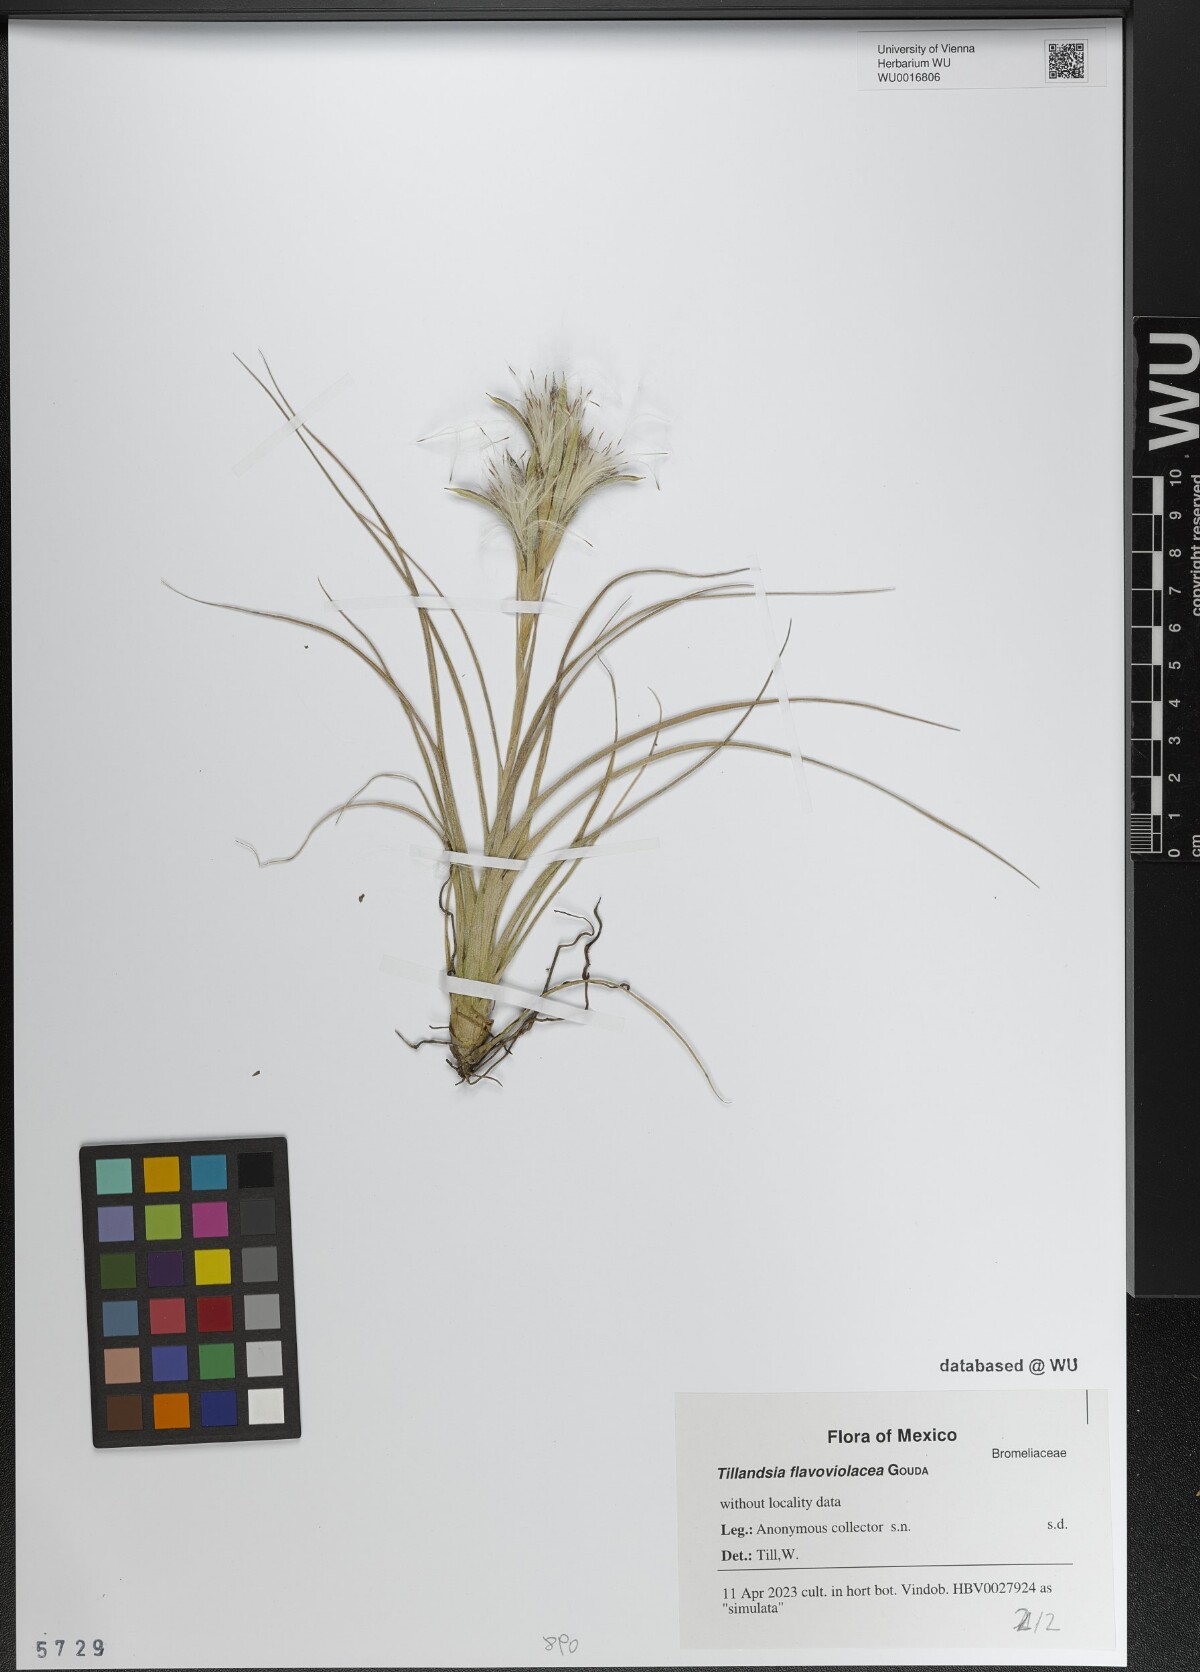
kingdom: Plantae
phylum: Tracheophyta
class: Liliopsida
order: Poales
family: Bromeliaceae
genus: Tillandsia
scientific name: Tillandsia flavoviolacea
